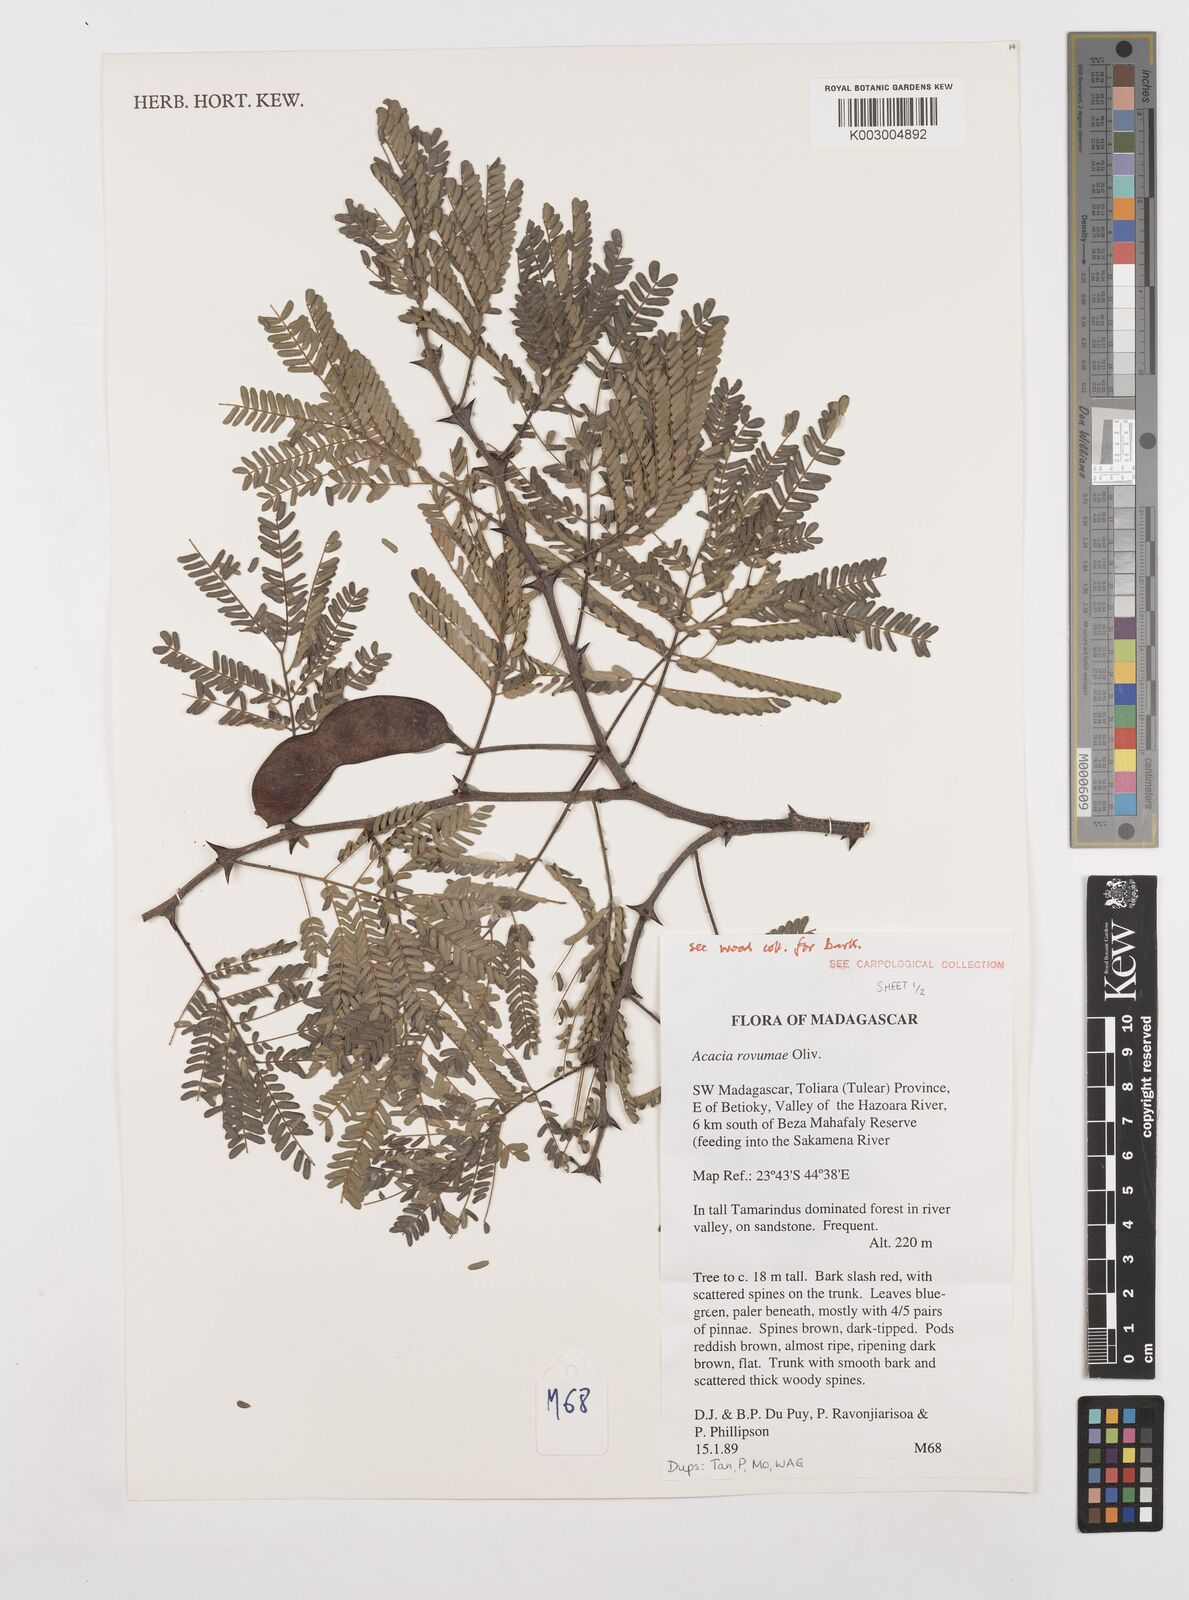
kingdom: Plantae
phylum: Tracheophyta
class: Magnoliopsida
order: Fabales
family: Fabaceae
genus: Senegalia
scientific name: Senegalia rovumae
